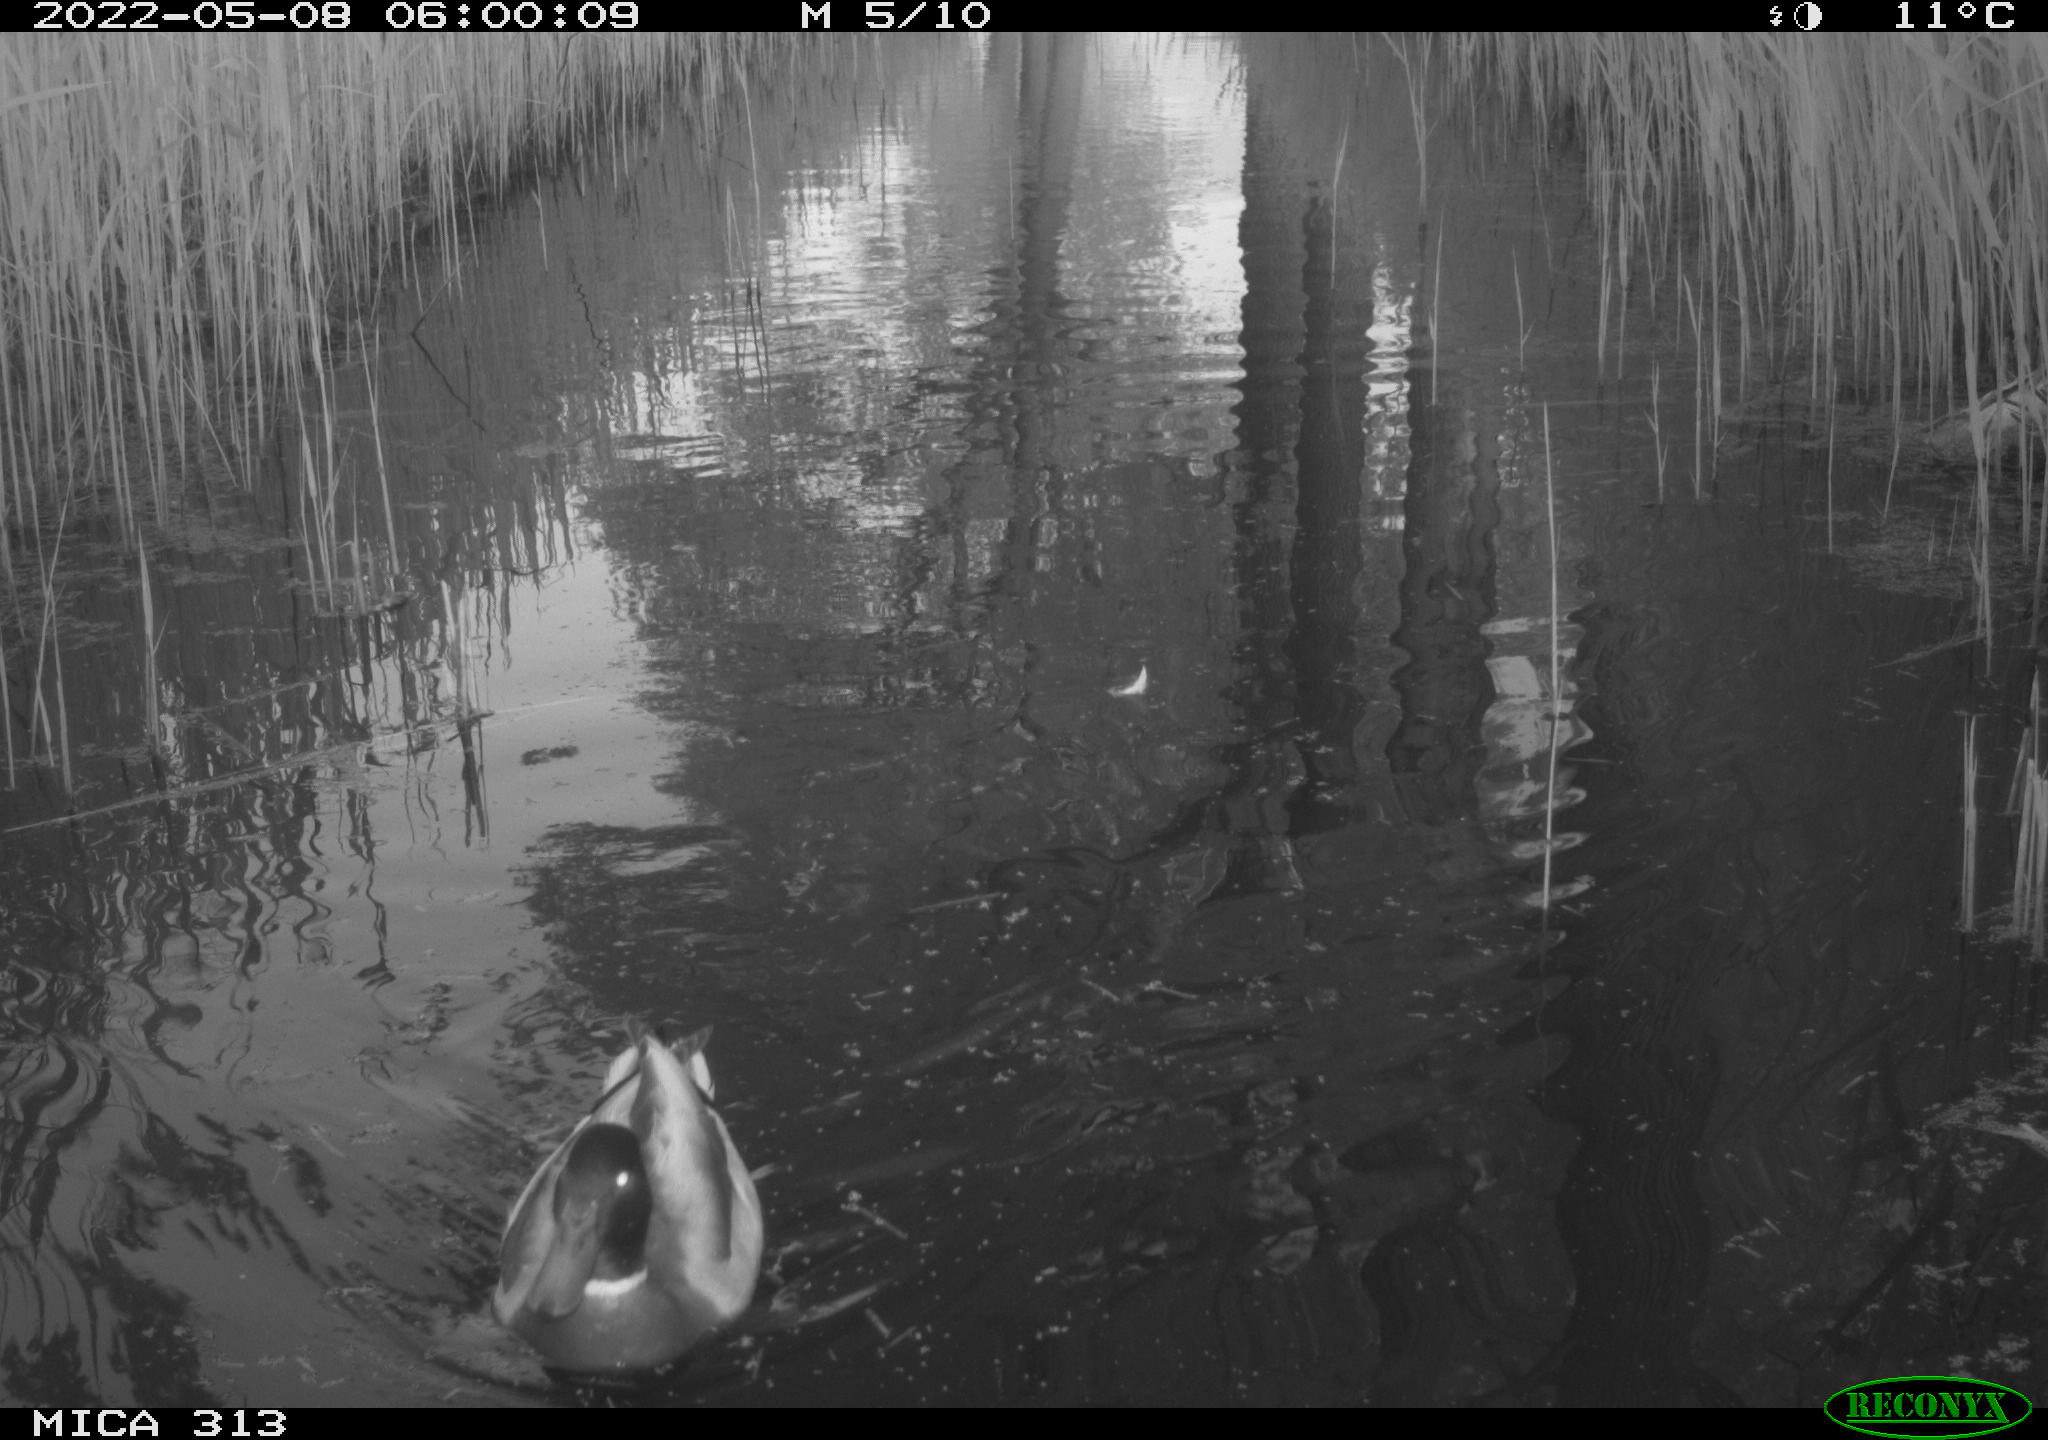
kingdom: Animalia
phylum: Chordata
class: Aves
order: Anseriformes
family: Anatidae
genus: Anas
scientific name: Anas platyrhynchos
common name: Mallard
